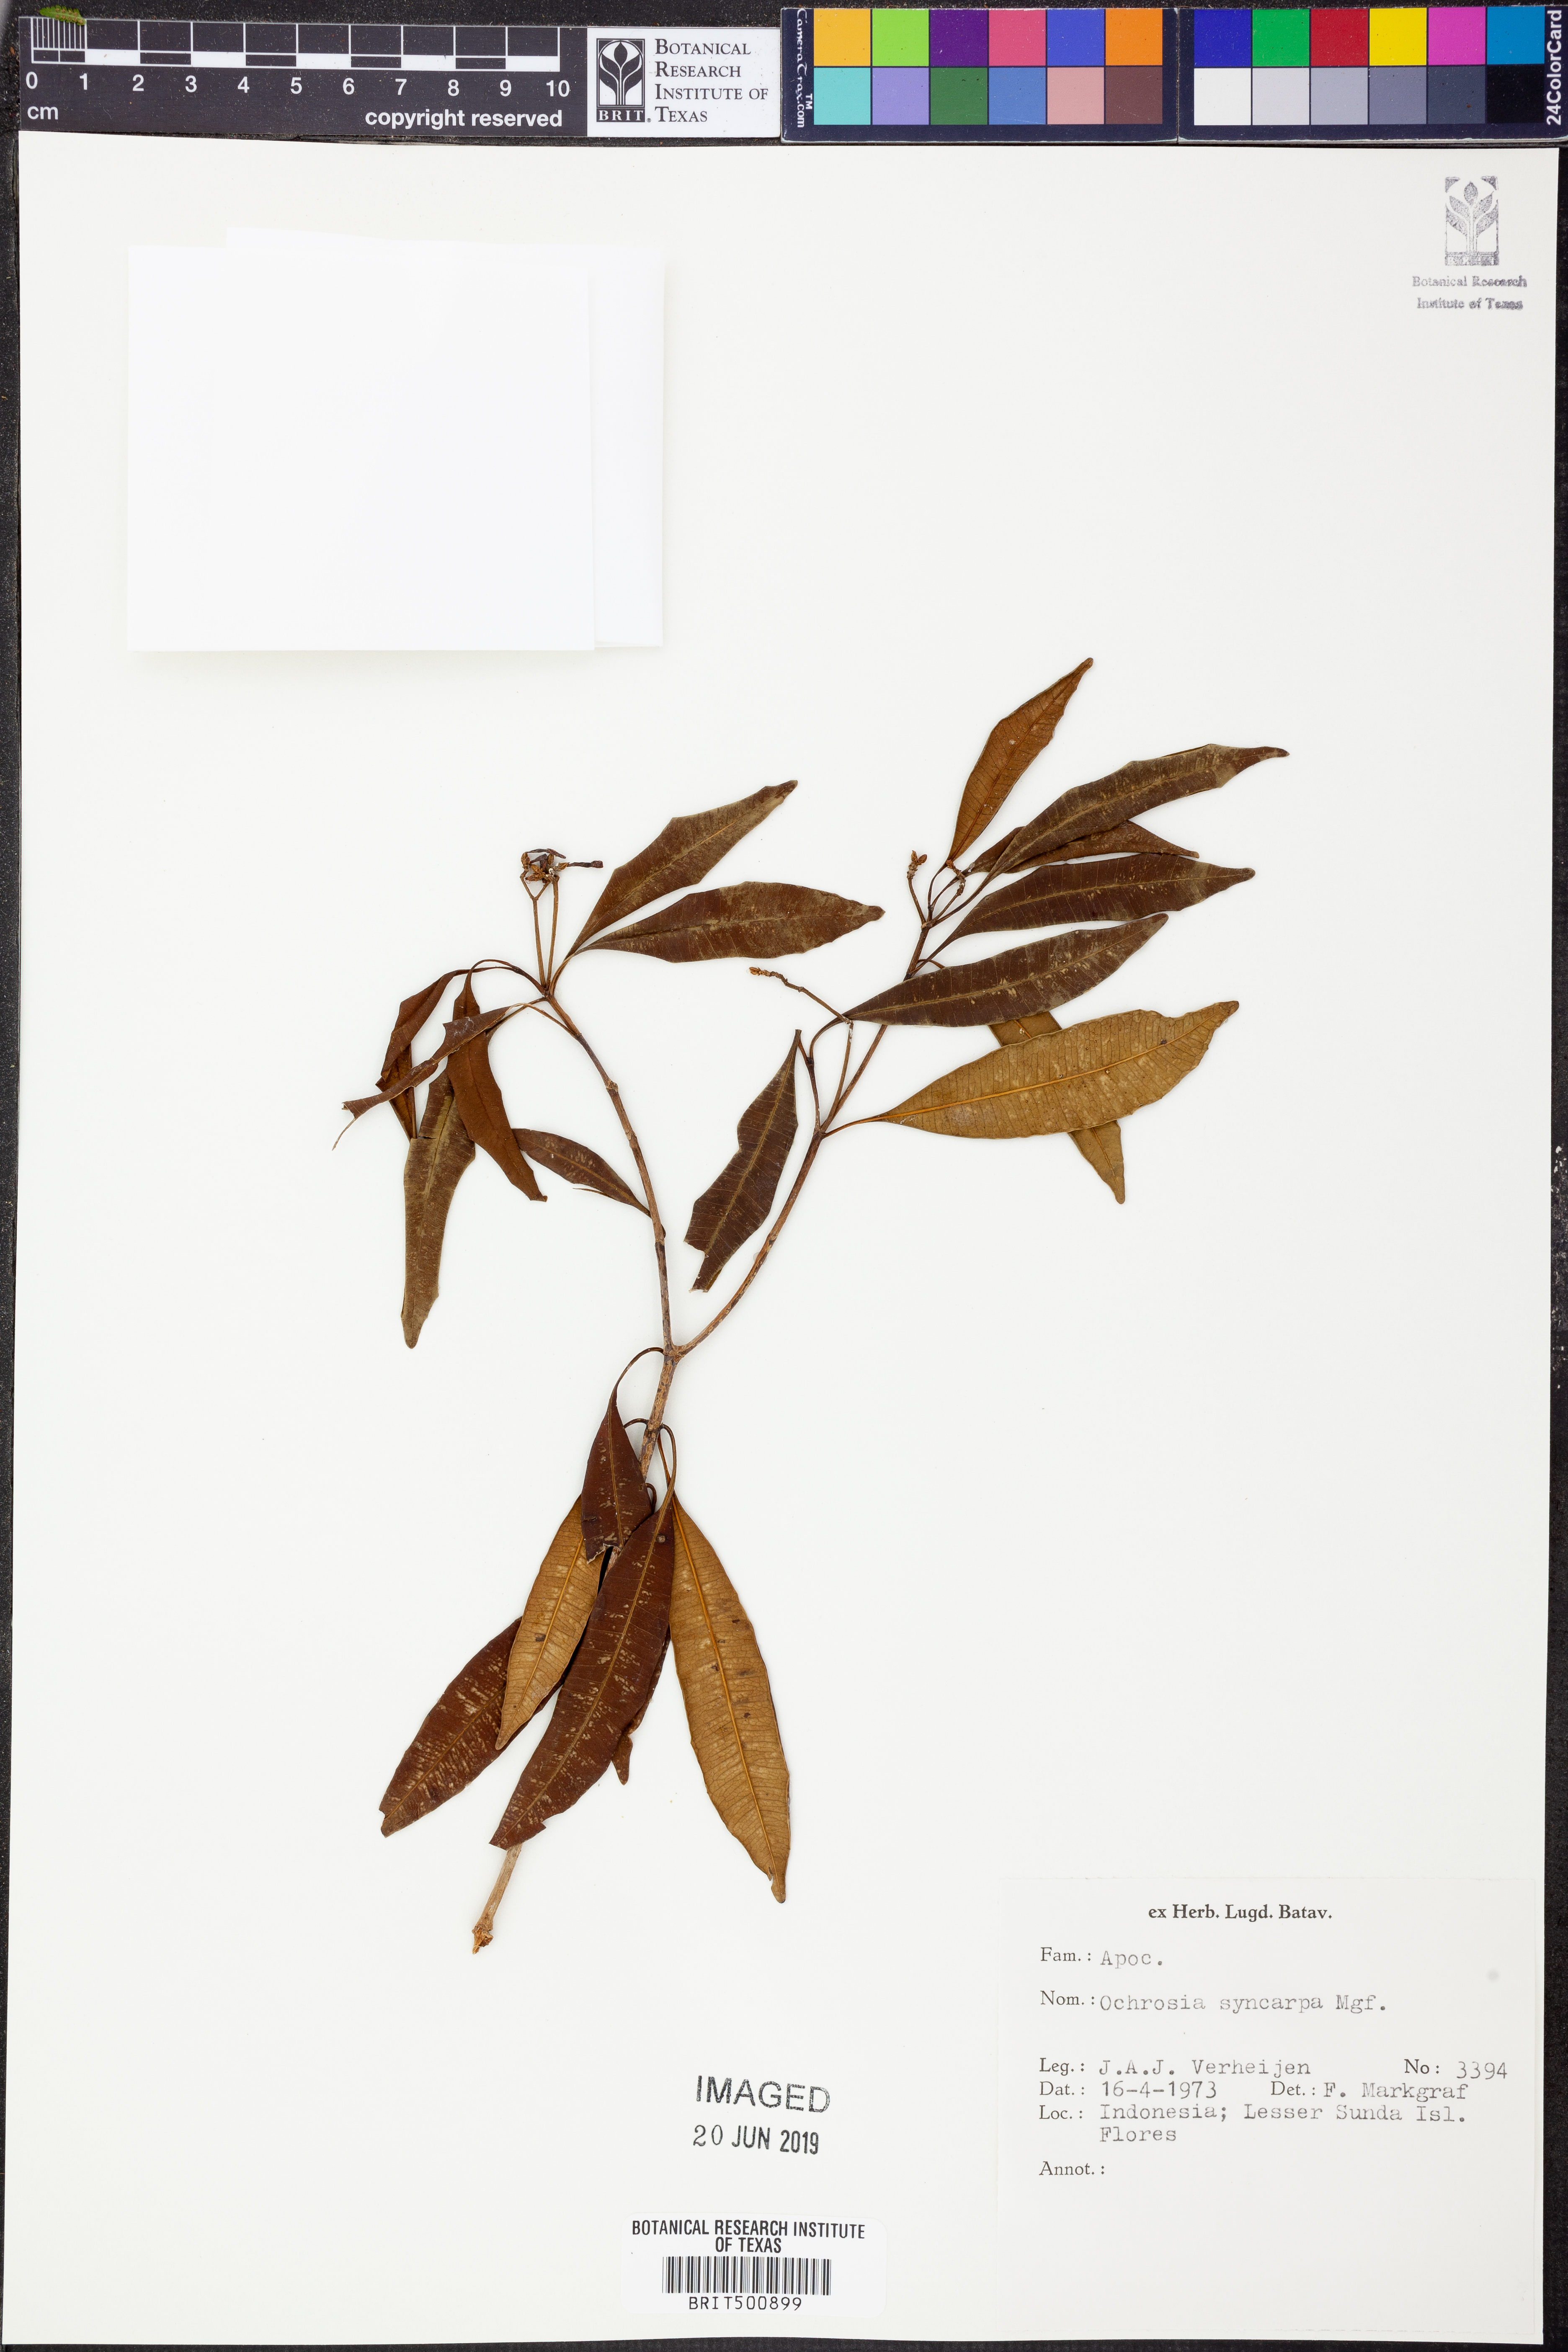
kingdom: Plantae
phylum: Tracheophyta
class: Magnoliopsida
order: Gentianales
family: Apocynaceae
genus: Ochrosia
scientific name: Ochrosia syncarpa
